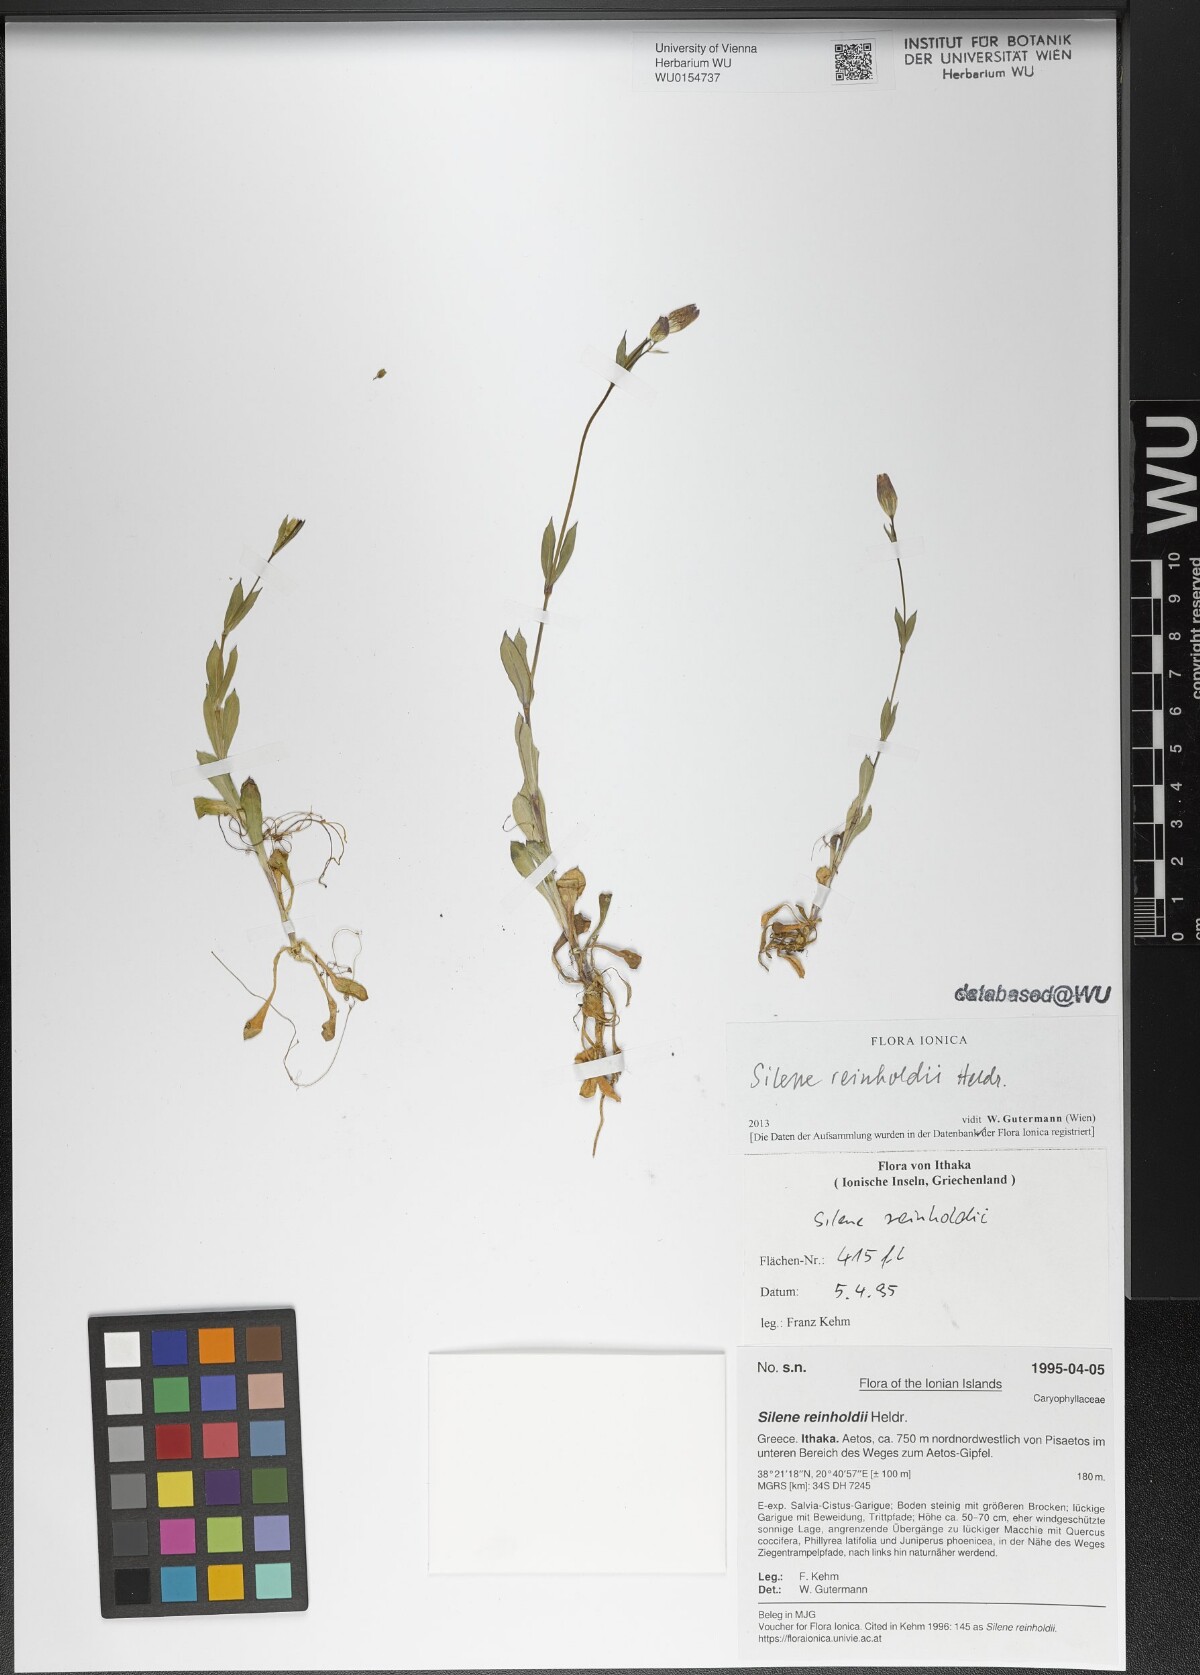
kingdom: Plantae
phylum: Tracheophyta
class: Magnoliopsida
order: Caryophyllales
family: Caryophyllaceae
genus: Silene
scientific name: Silene reinholdii
